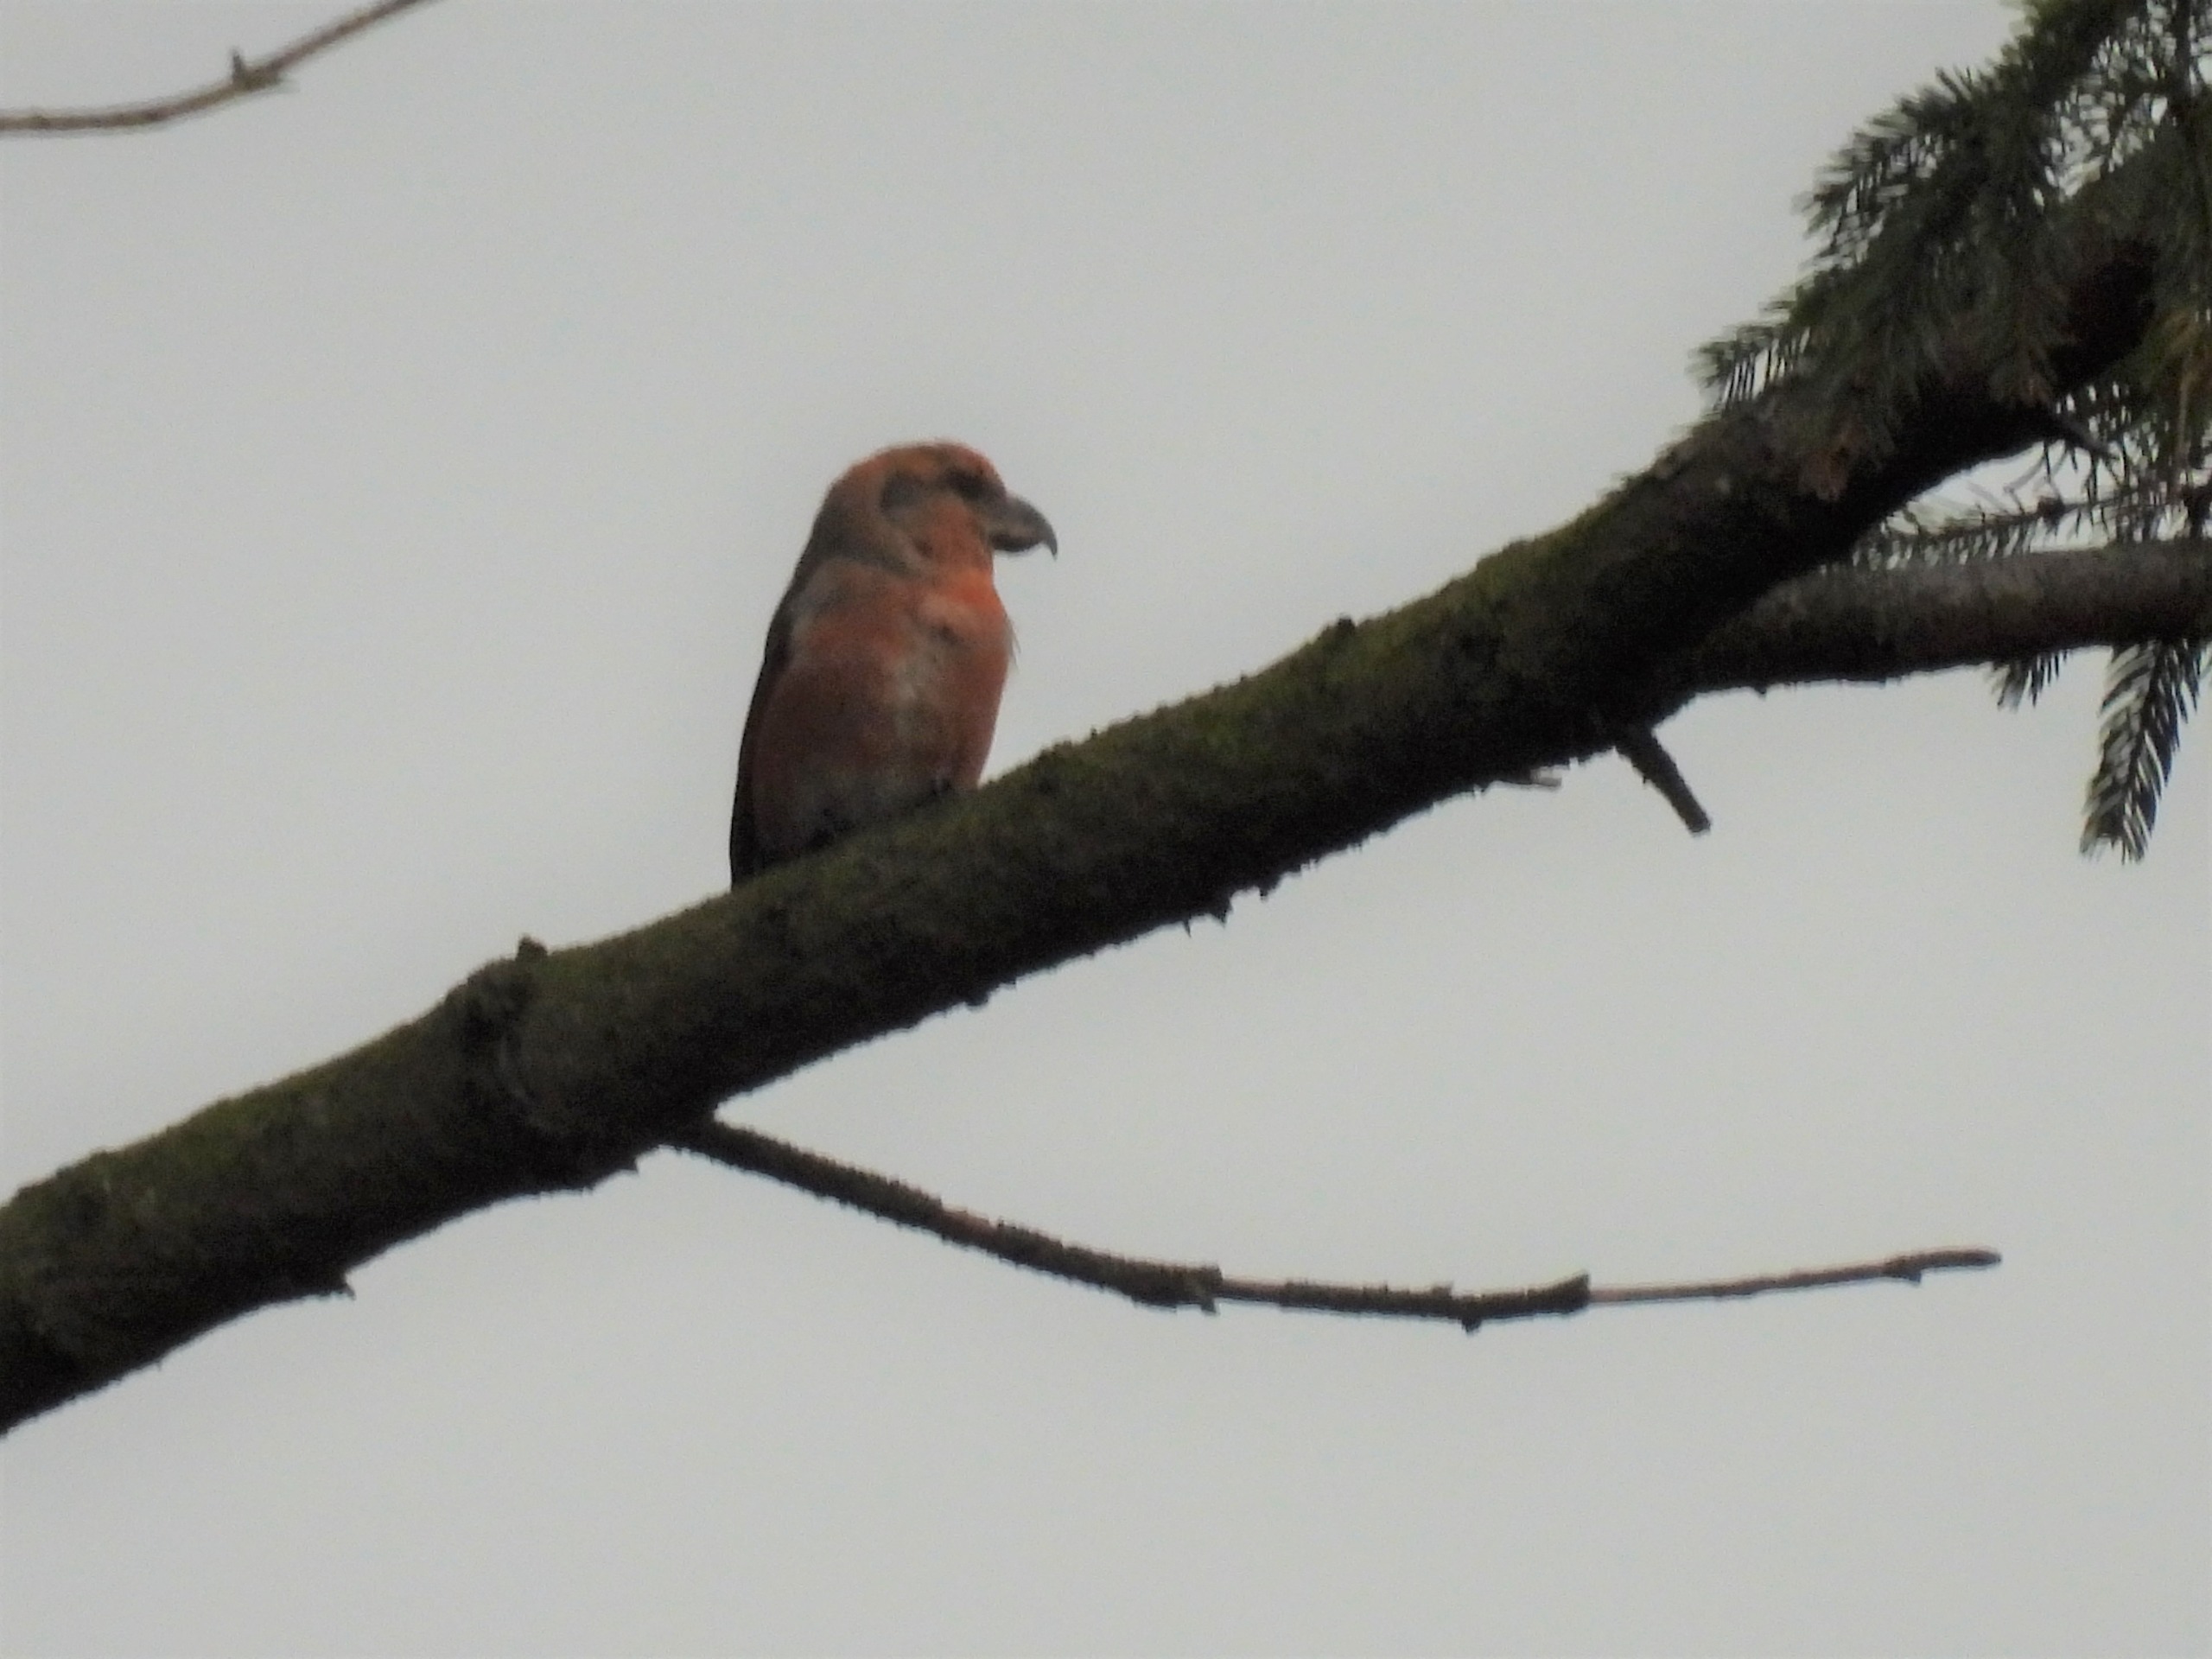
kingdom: Animalia
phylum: Chordata
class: Aves
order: Passeriformes
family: Fringillidae
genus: Loxia
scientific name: Loxia pytyopsittacus
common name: Stor korsnæb
